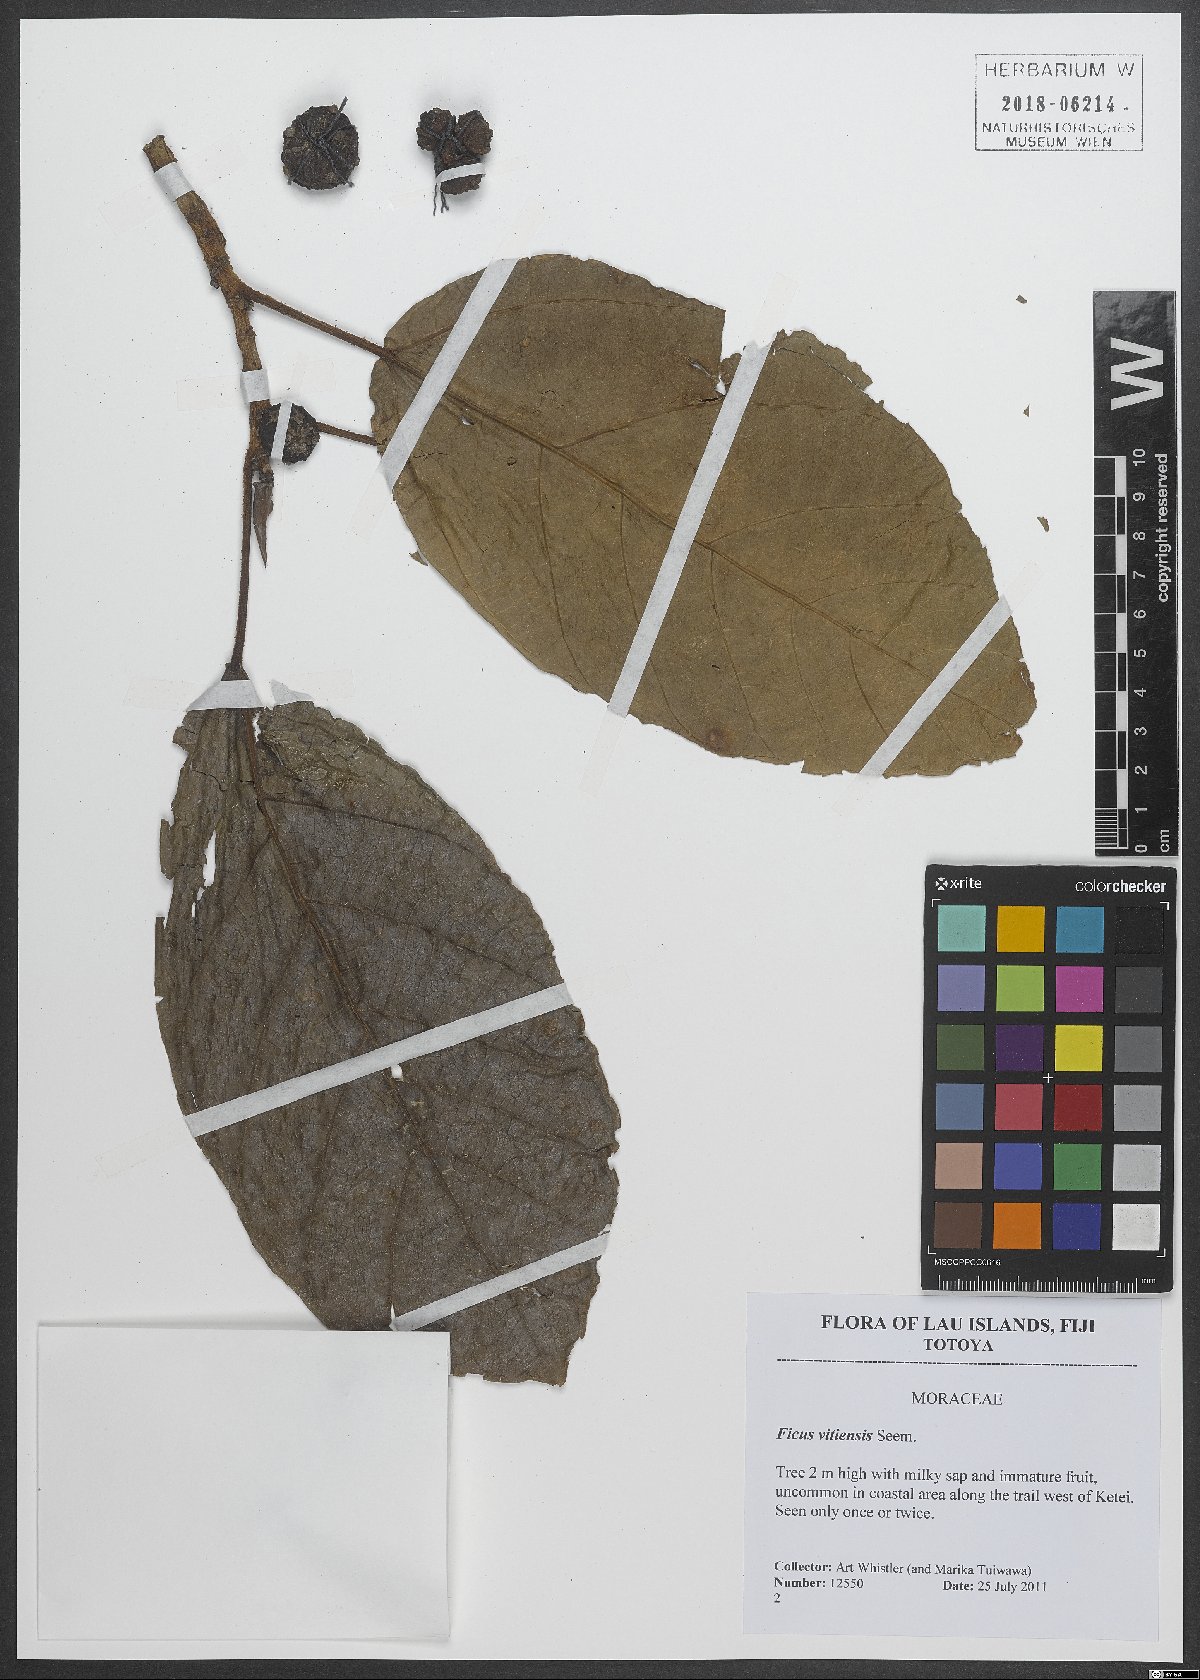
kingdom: Plantae
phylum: Tracheophyta
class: Magnoliopsida
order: Rosales
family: Moraceae
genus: Ficus
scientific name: Ficus vitiensis
